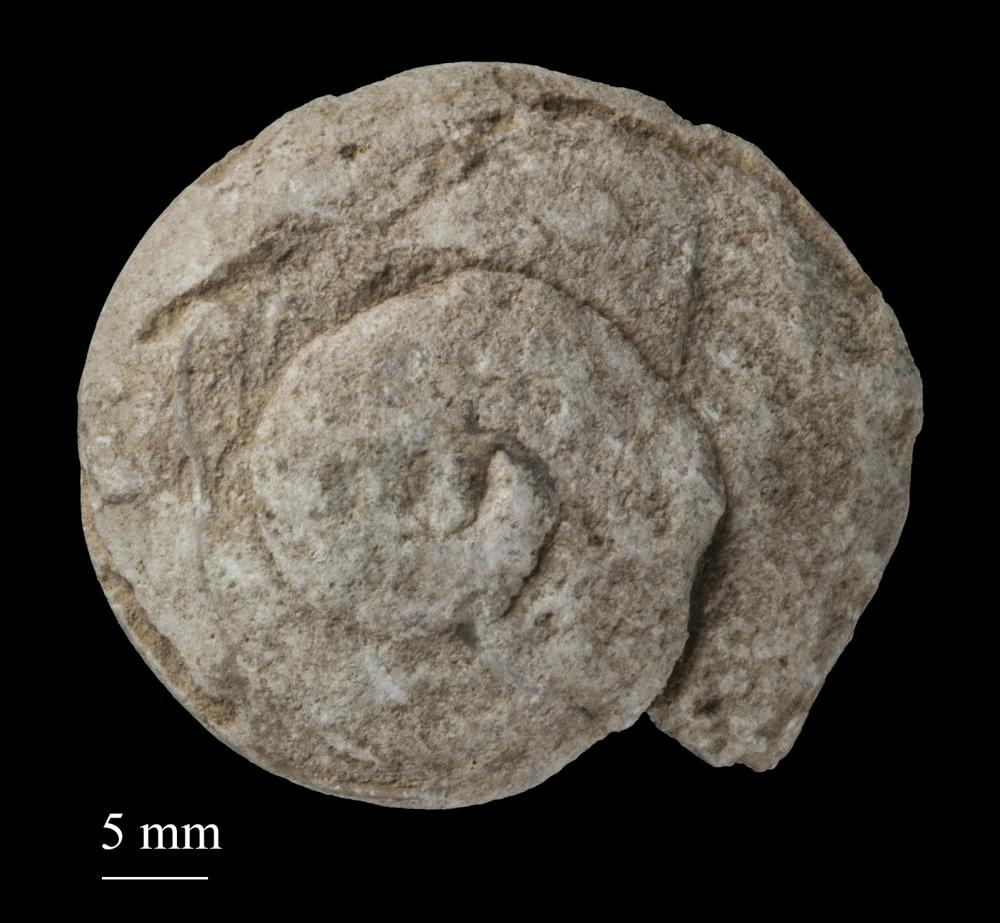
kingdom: Animalia
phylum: Mollusca
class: Gastropoda
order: Pleurotomariida
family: Pleurotomariidae
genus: Pleurotomaria
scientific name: Pleurotomaria
